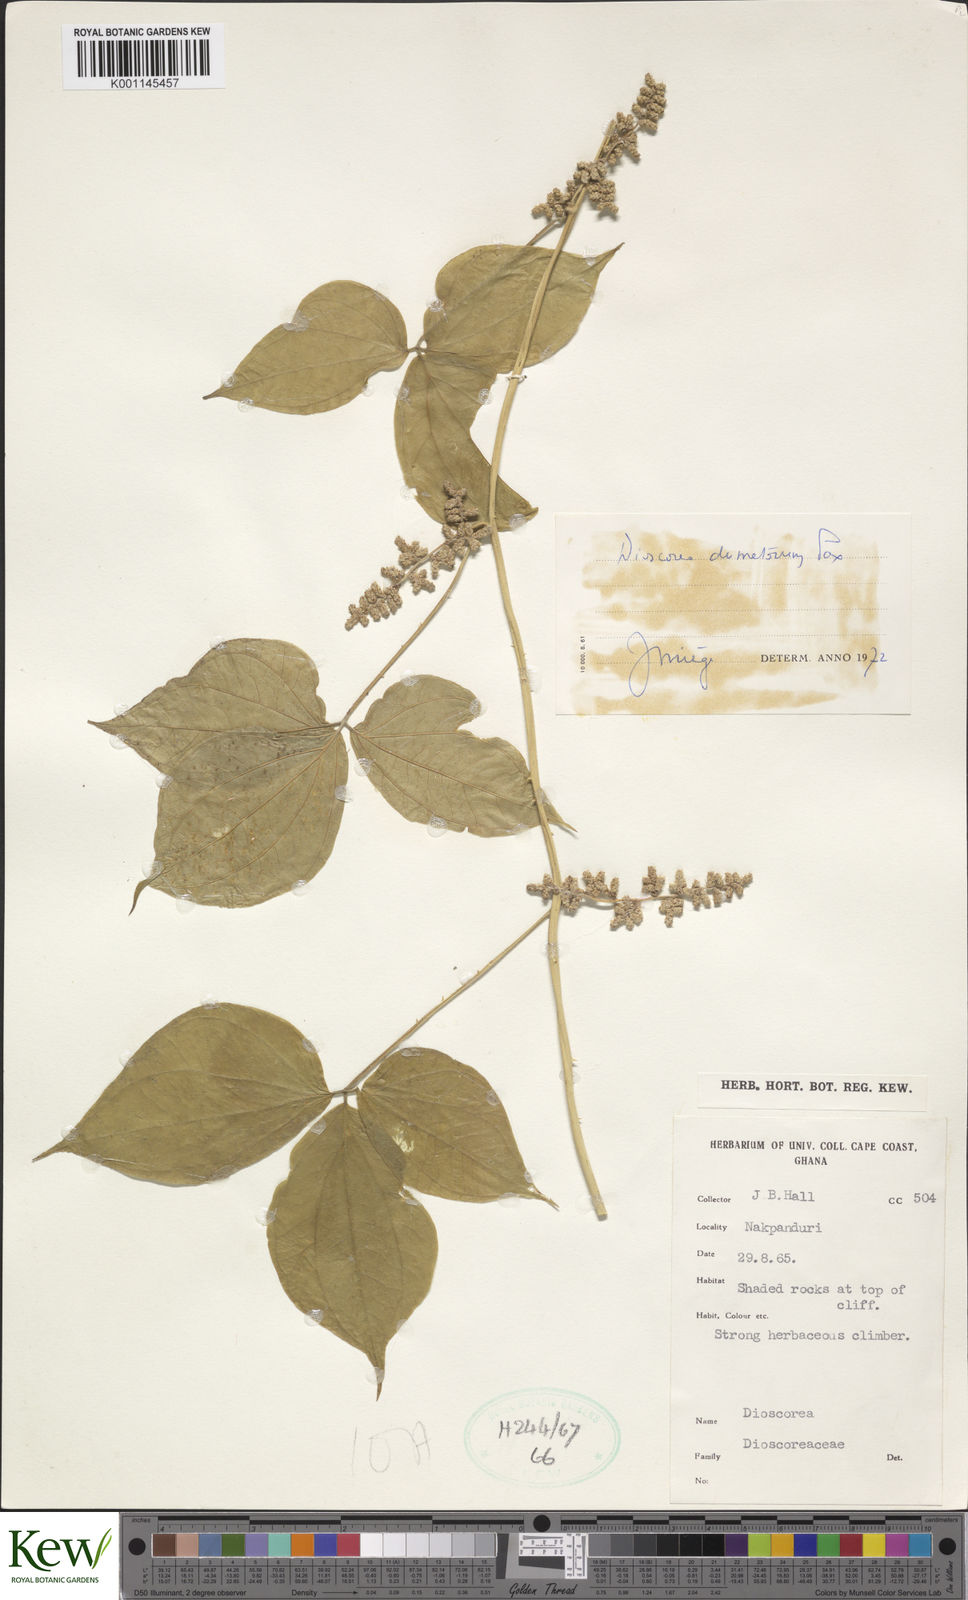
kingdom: Plantae
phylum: Tracheophyta
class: Liliopsida
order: Dioscoreales
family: Dioscoreaceae
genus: Dioscorea
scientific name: Dioscorea dumetorum
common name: African bitter yam
